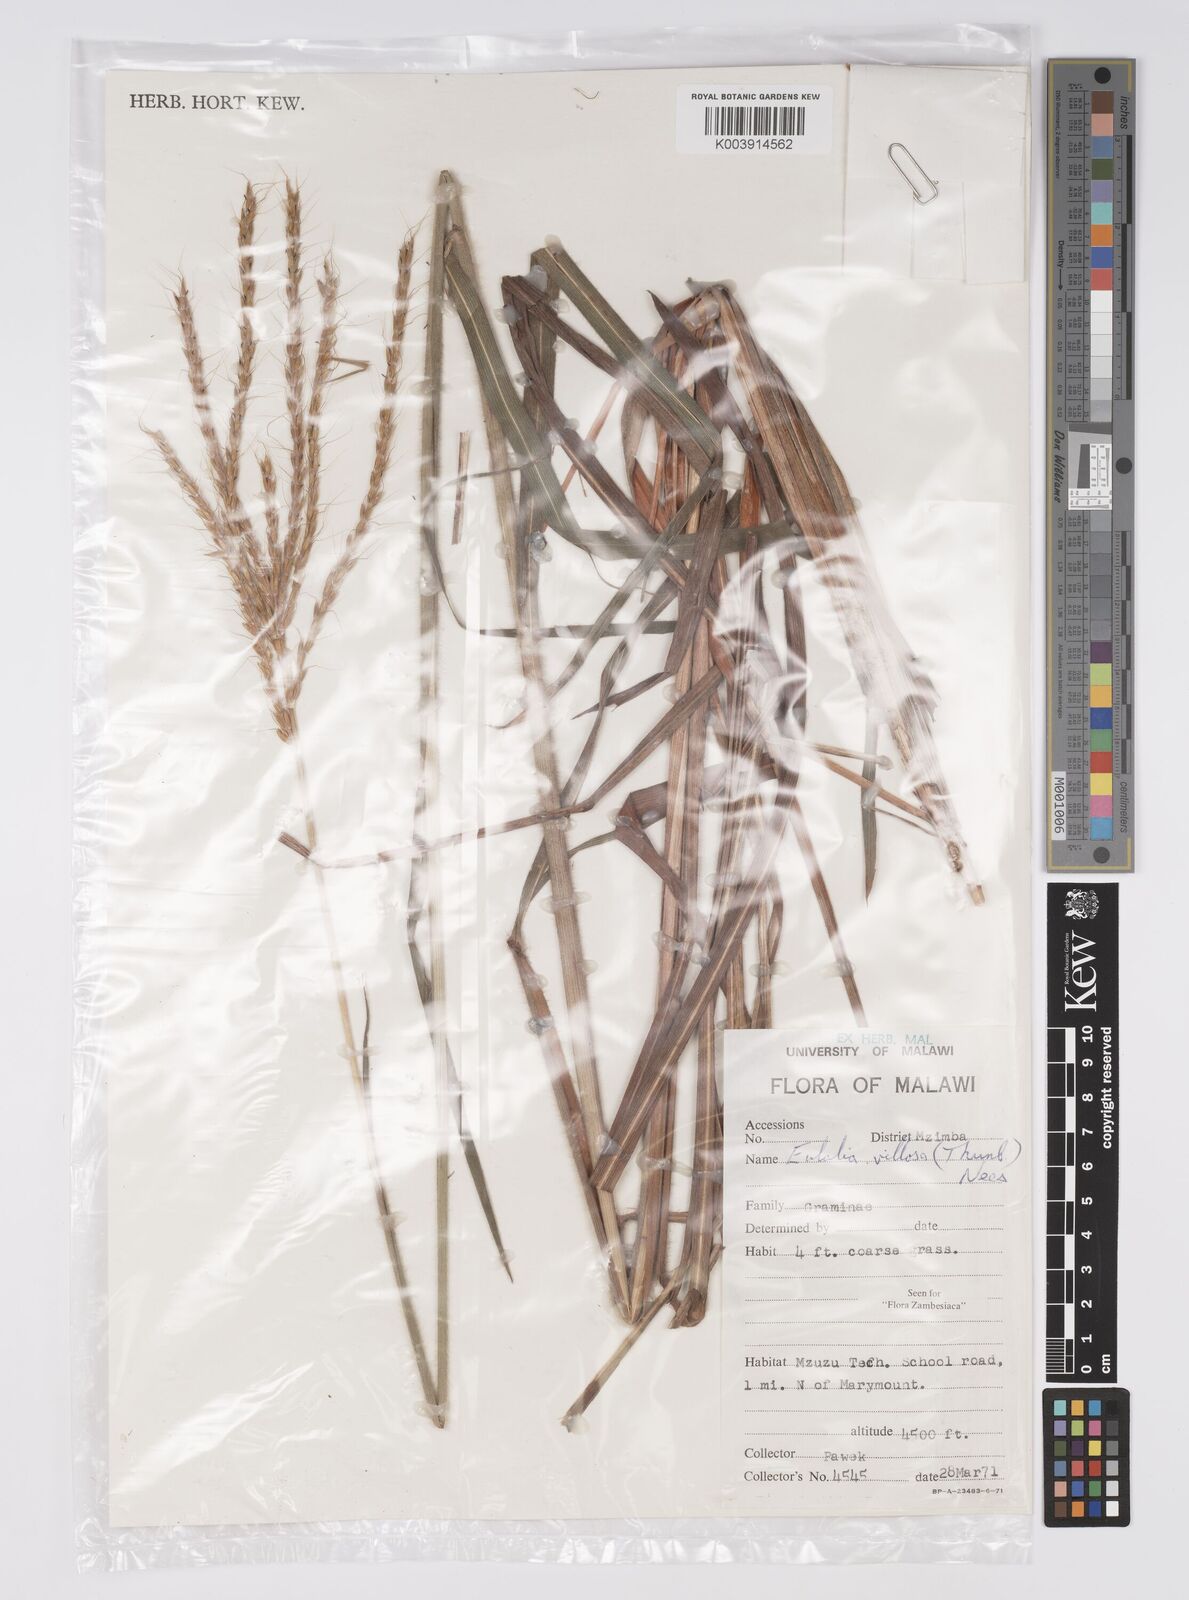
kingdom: Plantae
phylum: Tracheophyta
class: Liliopsida
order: Poales
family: Poaceae
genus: Eulalia
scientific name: Eulalia villosa
